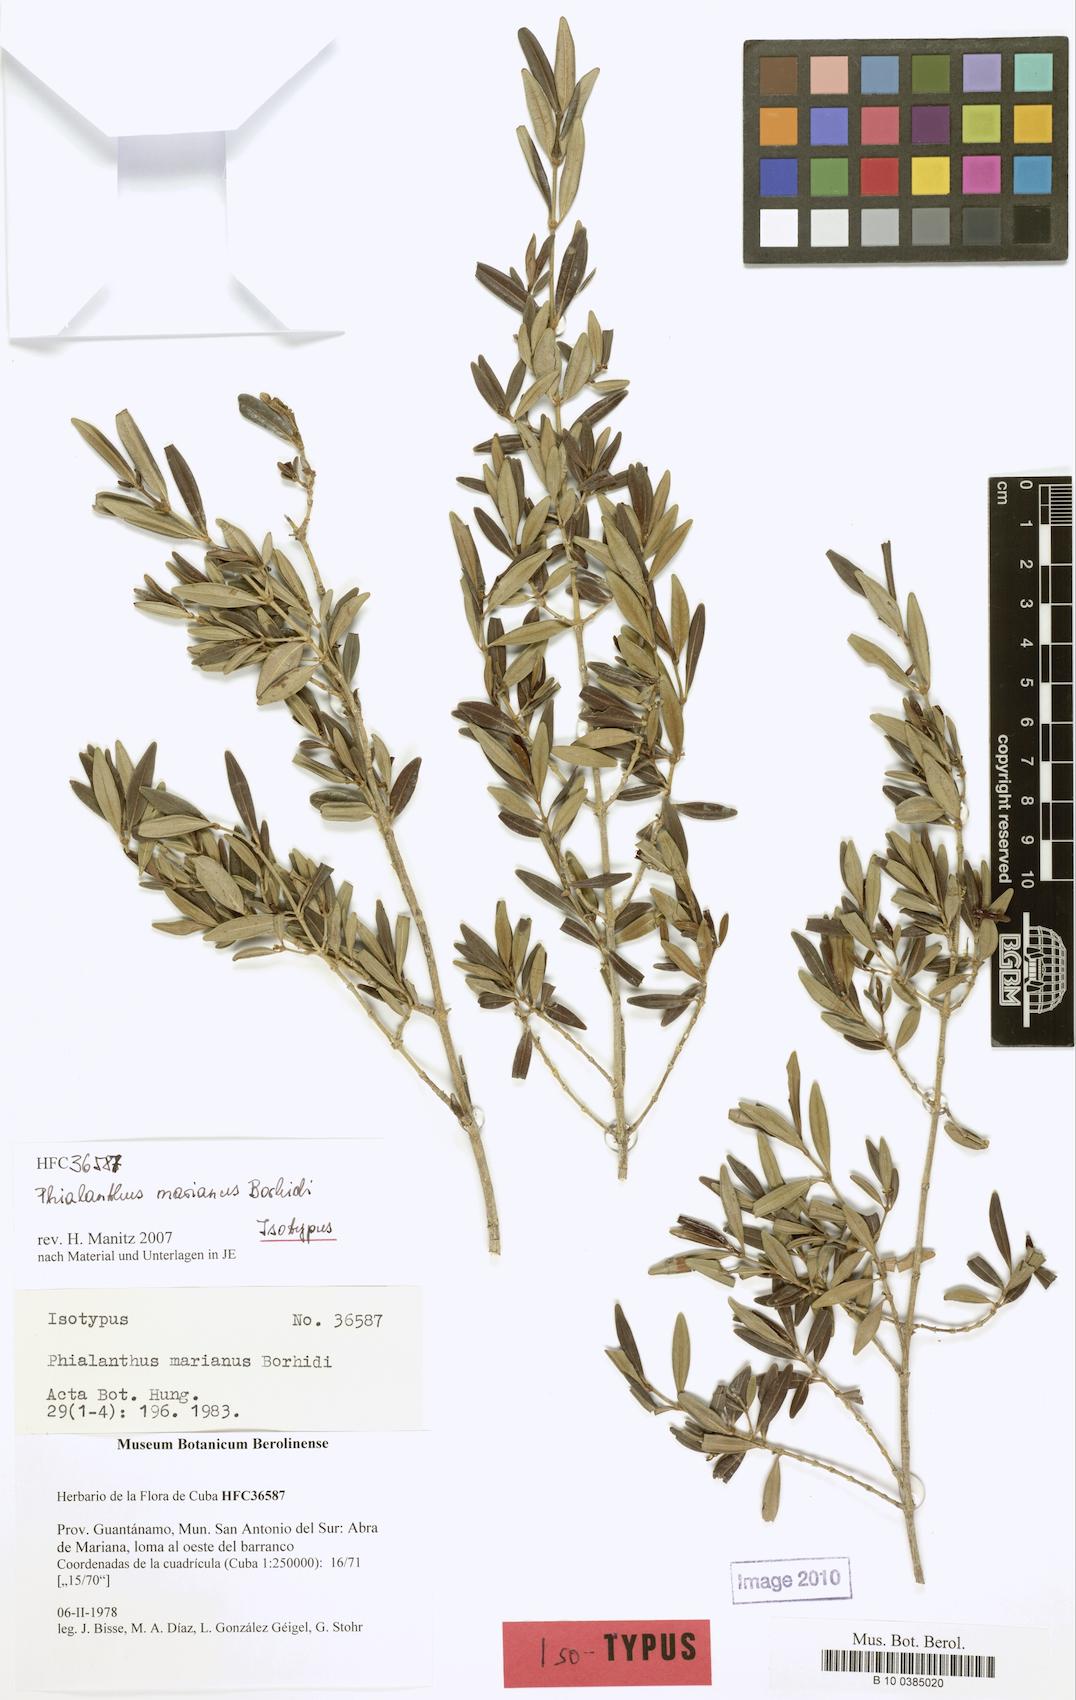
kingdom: Plantae
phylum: Tracheophyta
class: Magnoliopsida
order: Gentianales
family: Rubiaceae
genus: Phialanthus
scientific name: Phialanthus marianus
